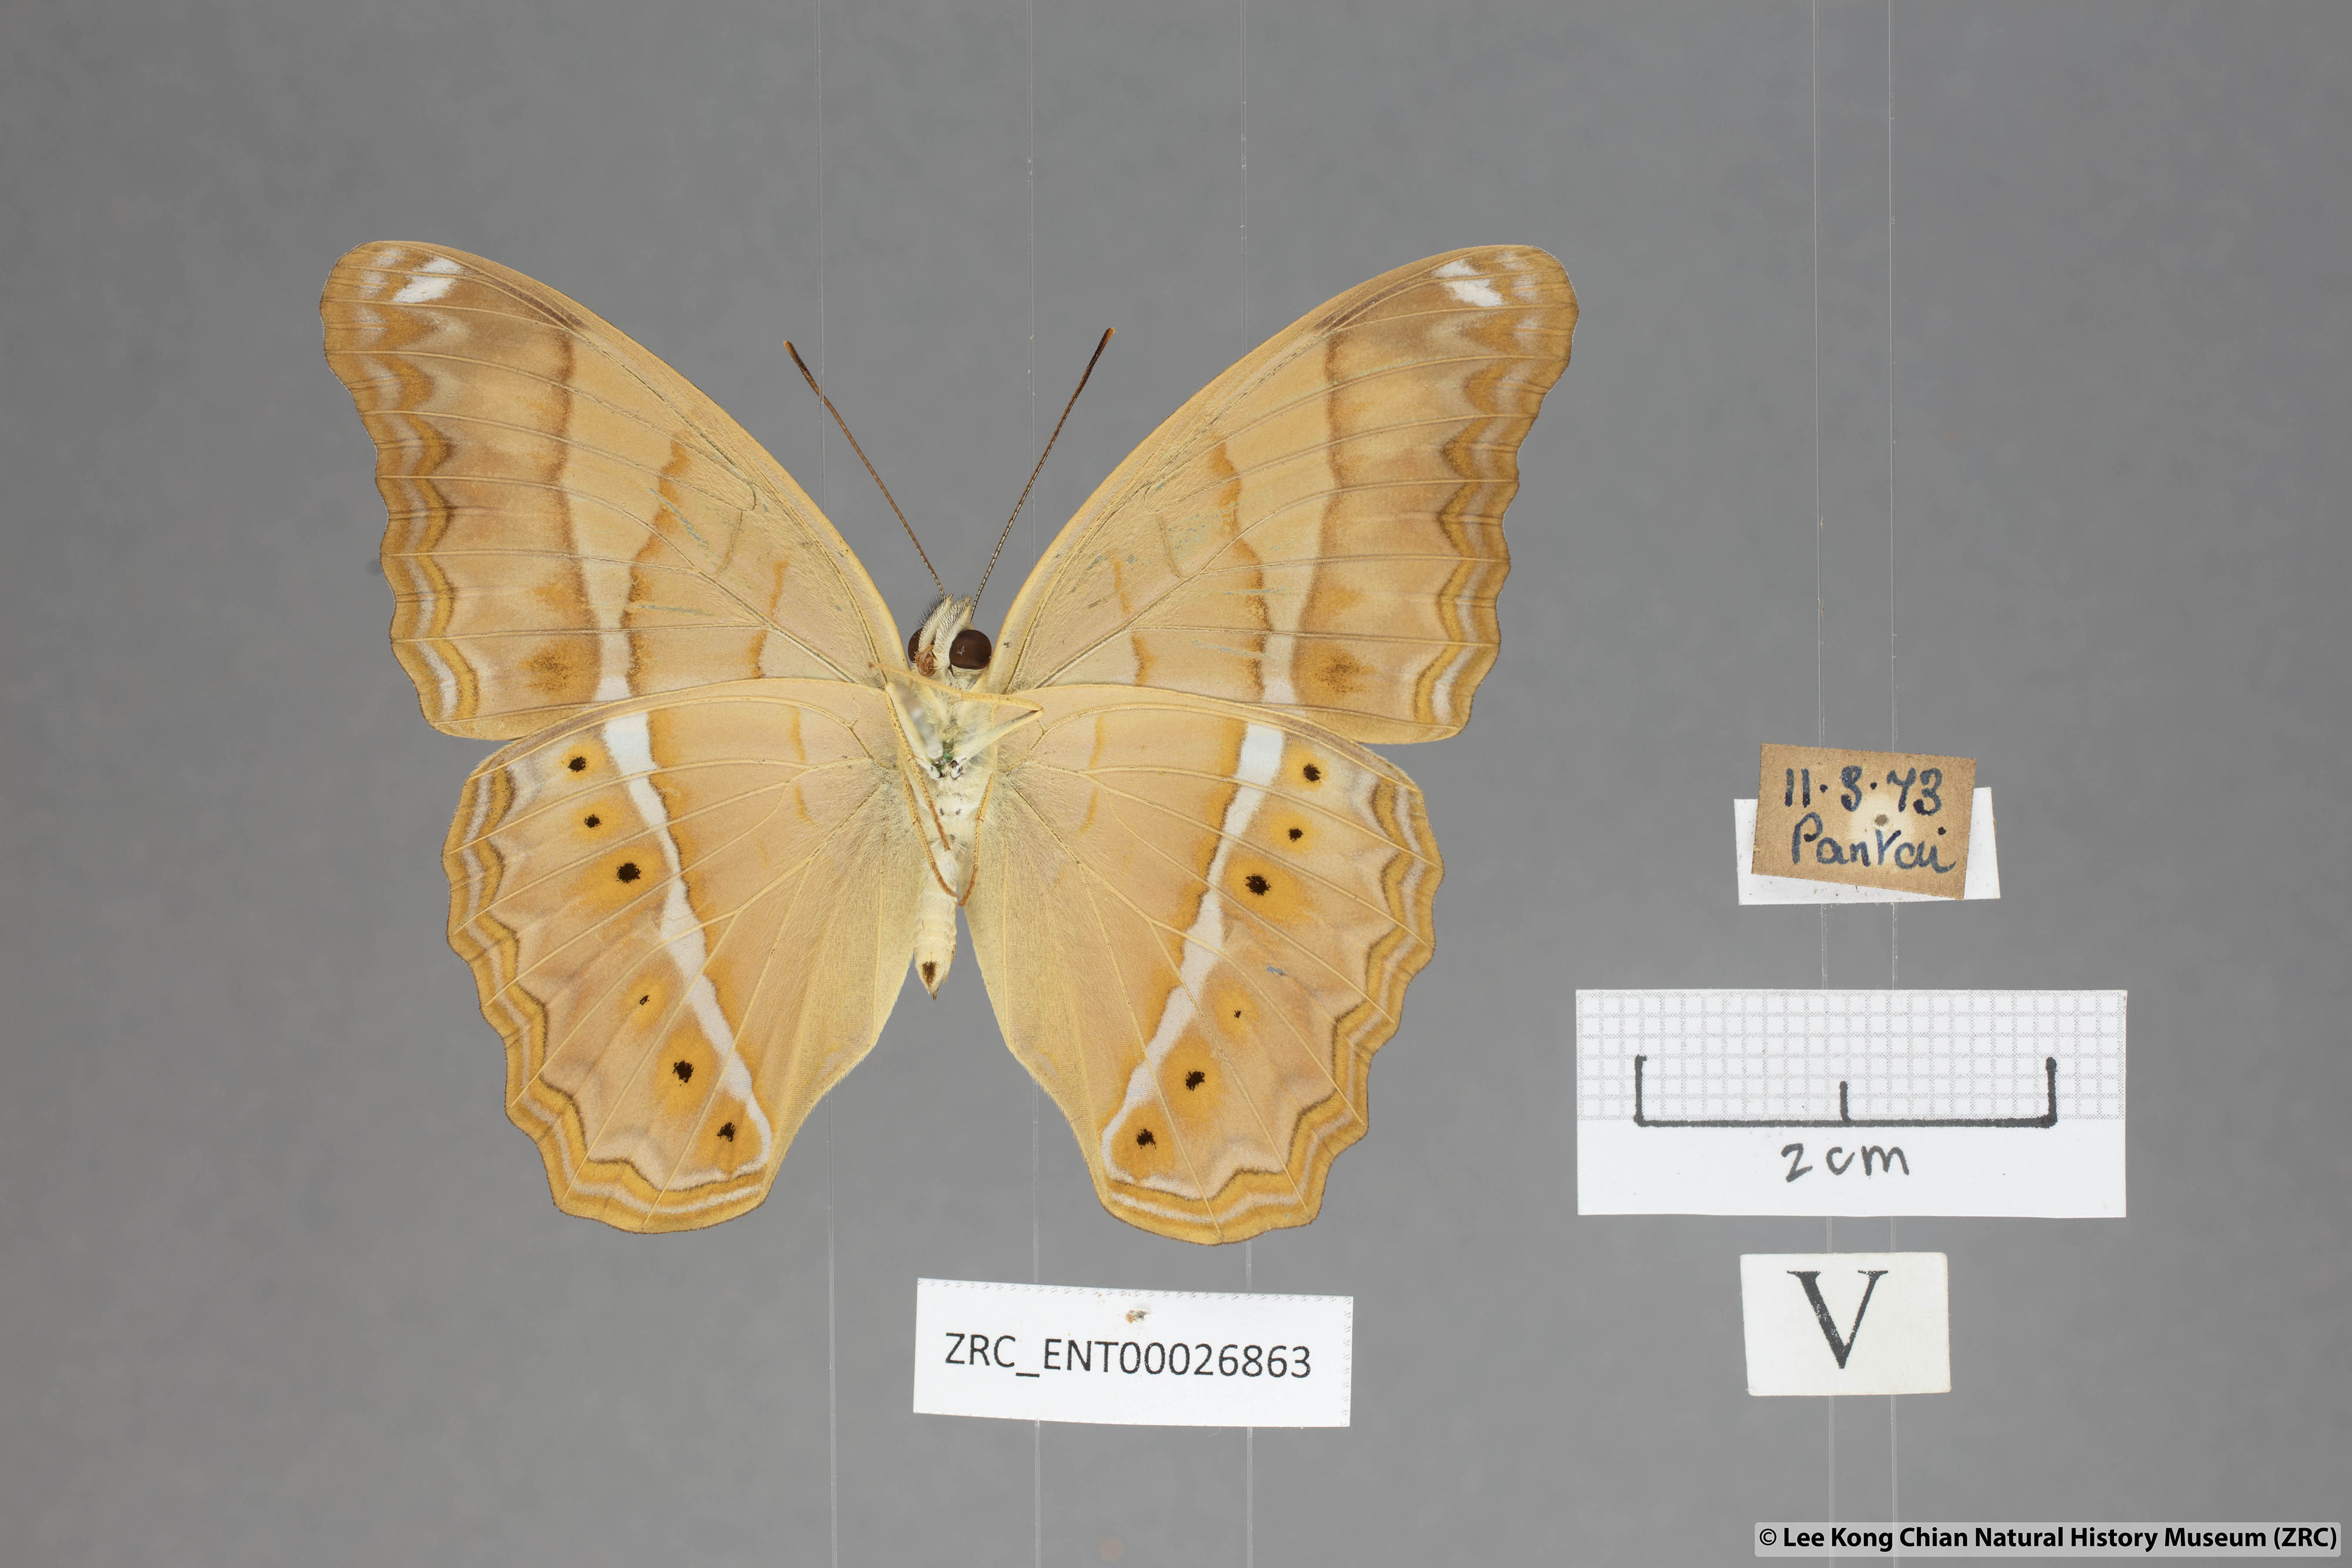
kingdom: Animalia
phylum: Arthropoda
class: Insecta
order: Lepidoptera
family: Nymphalidae
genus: Cirrochroa
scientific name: Cirrochroa emalea
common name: Malay yeoman
